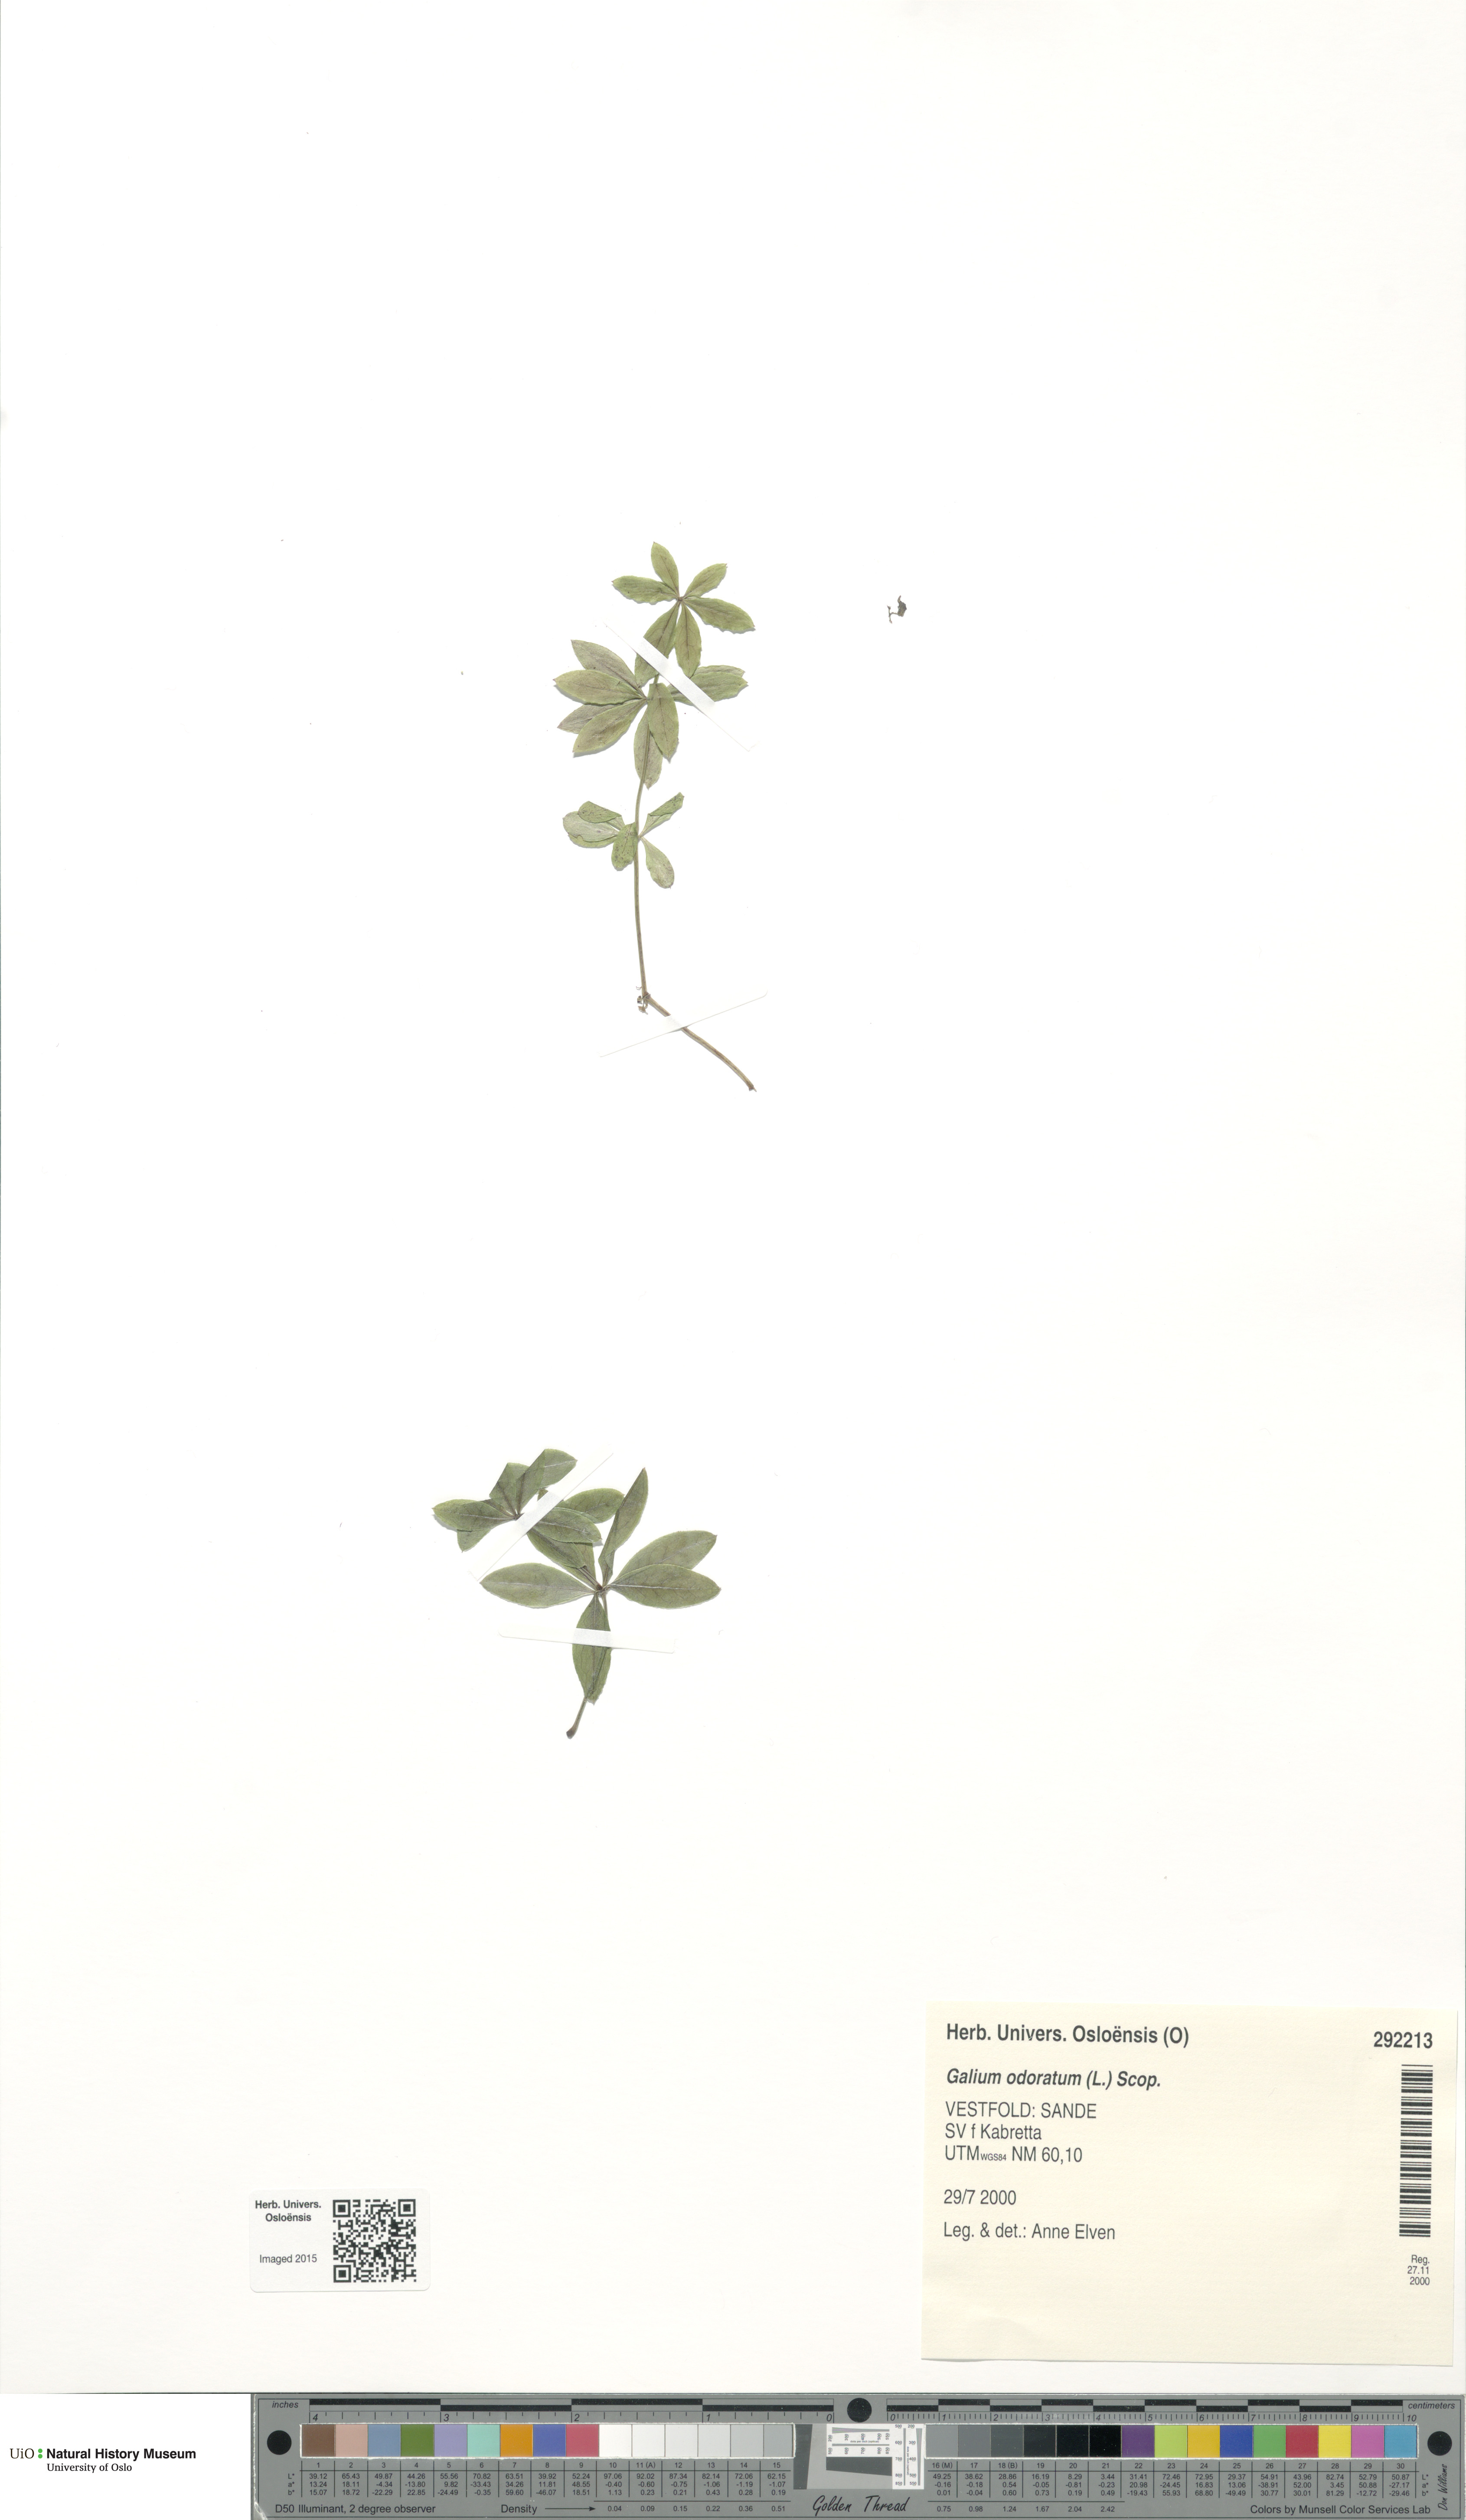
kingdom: Plantae
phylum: Tracheophyta
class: Magnoliopsida
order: Gentianales
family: Rubiaceae
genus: Galium
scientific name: Galium odoratum
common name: Sweet woodruff
